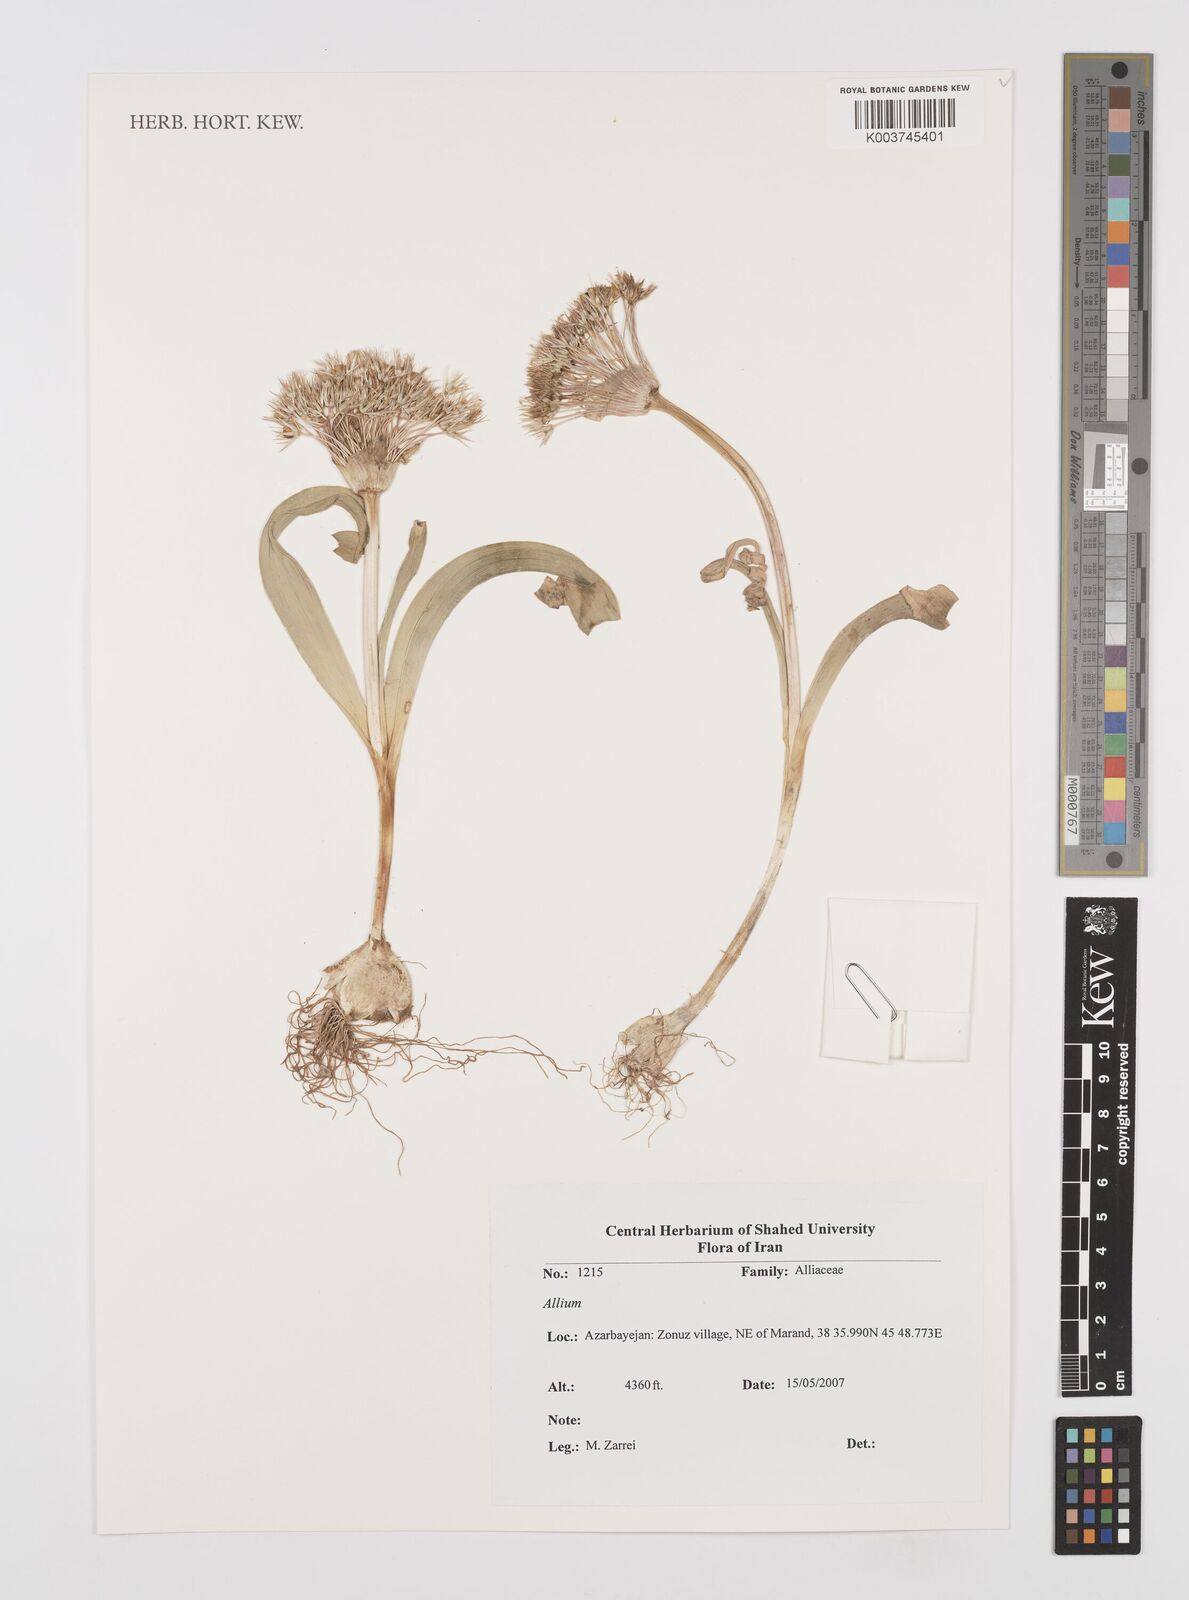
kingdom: Plantae
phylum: Tracheophyta
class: Liliopsida
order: Asparagales
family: Amaryllidaceae
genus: Allium
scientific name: Allium
